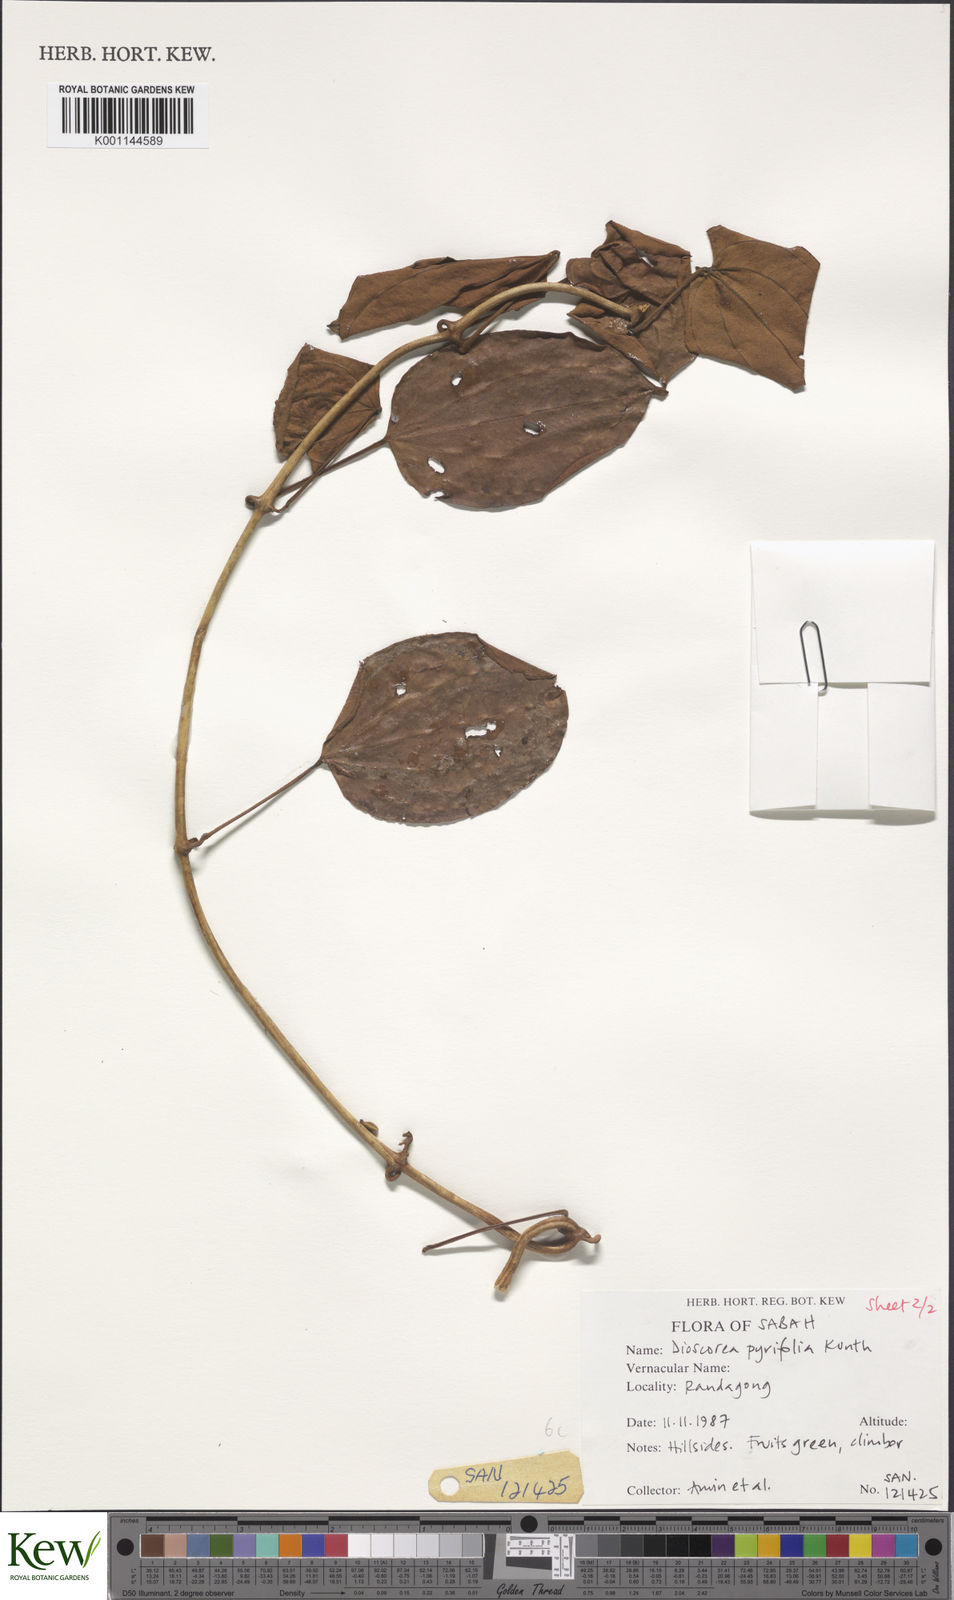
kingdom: Plantae
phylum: Tracheophyta
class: Liliopsida
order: Dioscoreales
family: Dioscoreaceae
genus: Dioscorea
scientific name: Dioscorea pyrifolia
